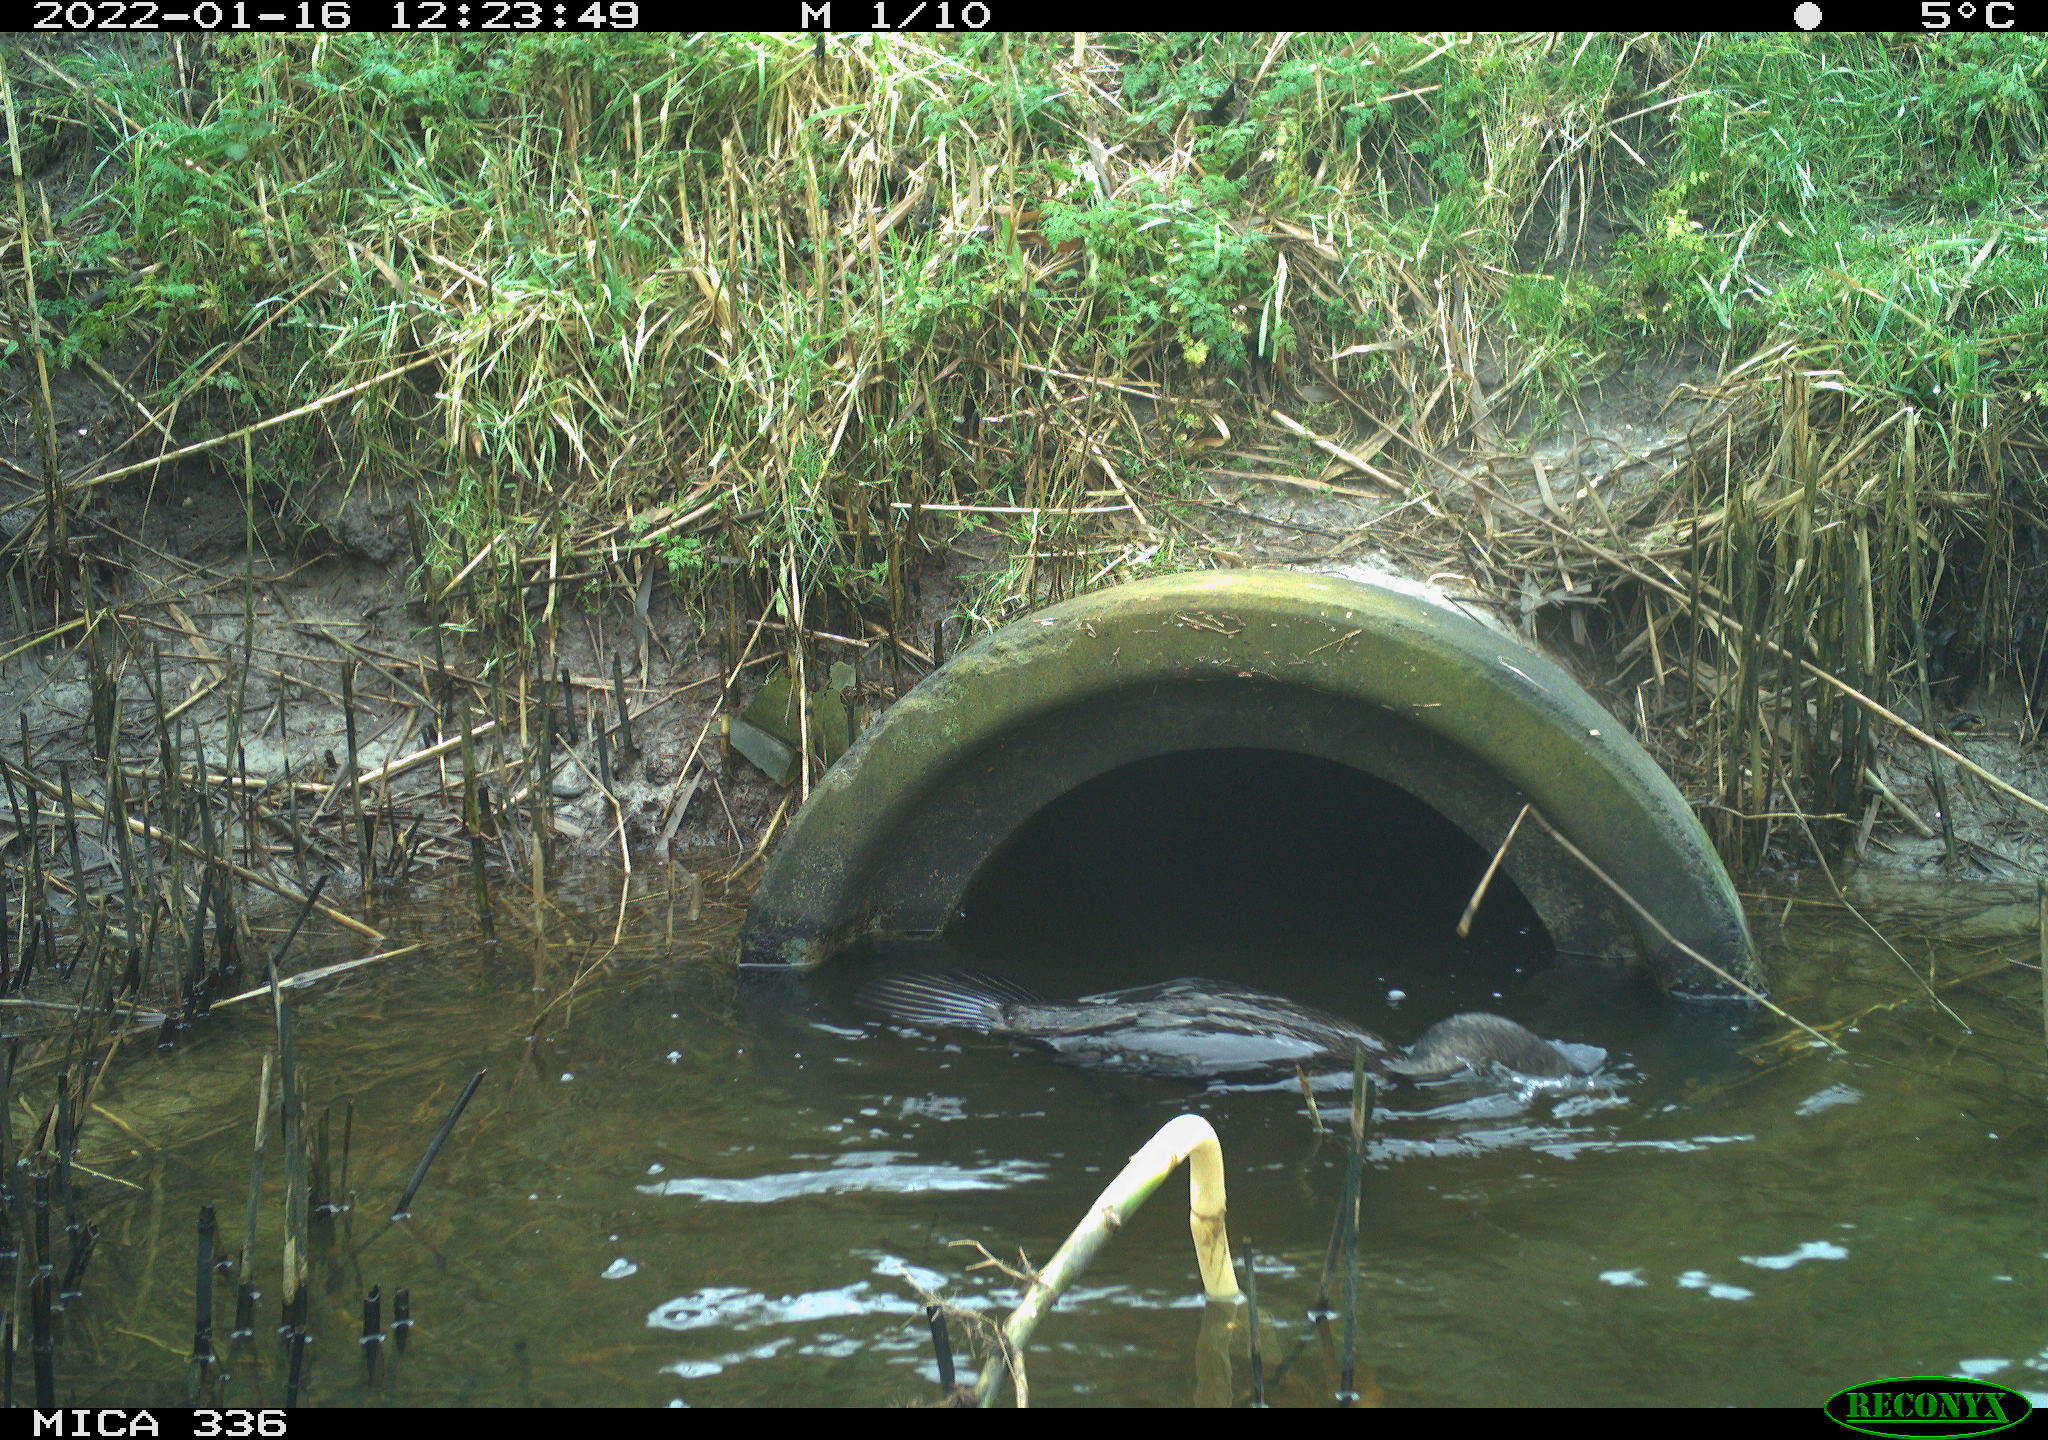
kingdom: Animalia
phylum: Chordata
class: Aves
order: Suliformes
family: Phalacrocoracidae
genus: Phalacrocorax
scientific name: Phalacrocorax carbo
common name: Great cormorant
